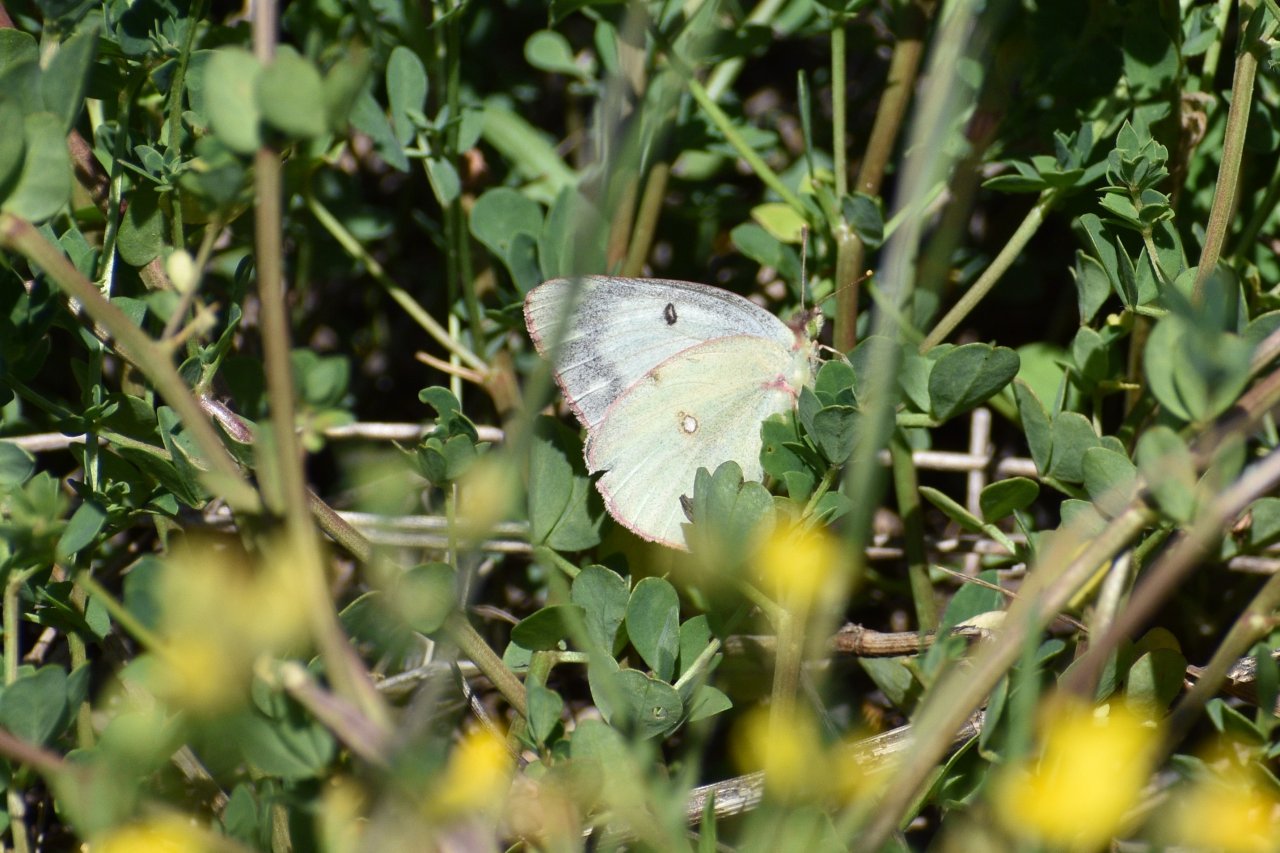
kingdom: Animalia
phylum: Arthropoda
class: Insecta
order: Lepidoptera
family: Pieridae
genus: Colias
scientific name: Colias philodice
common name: Clouded Sulphur
